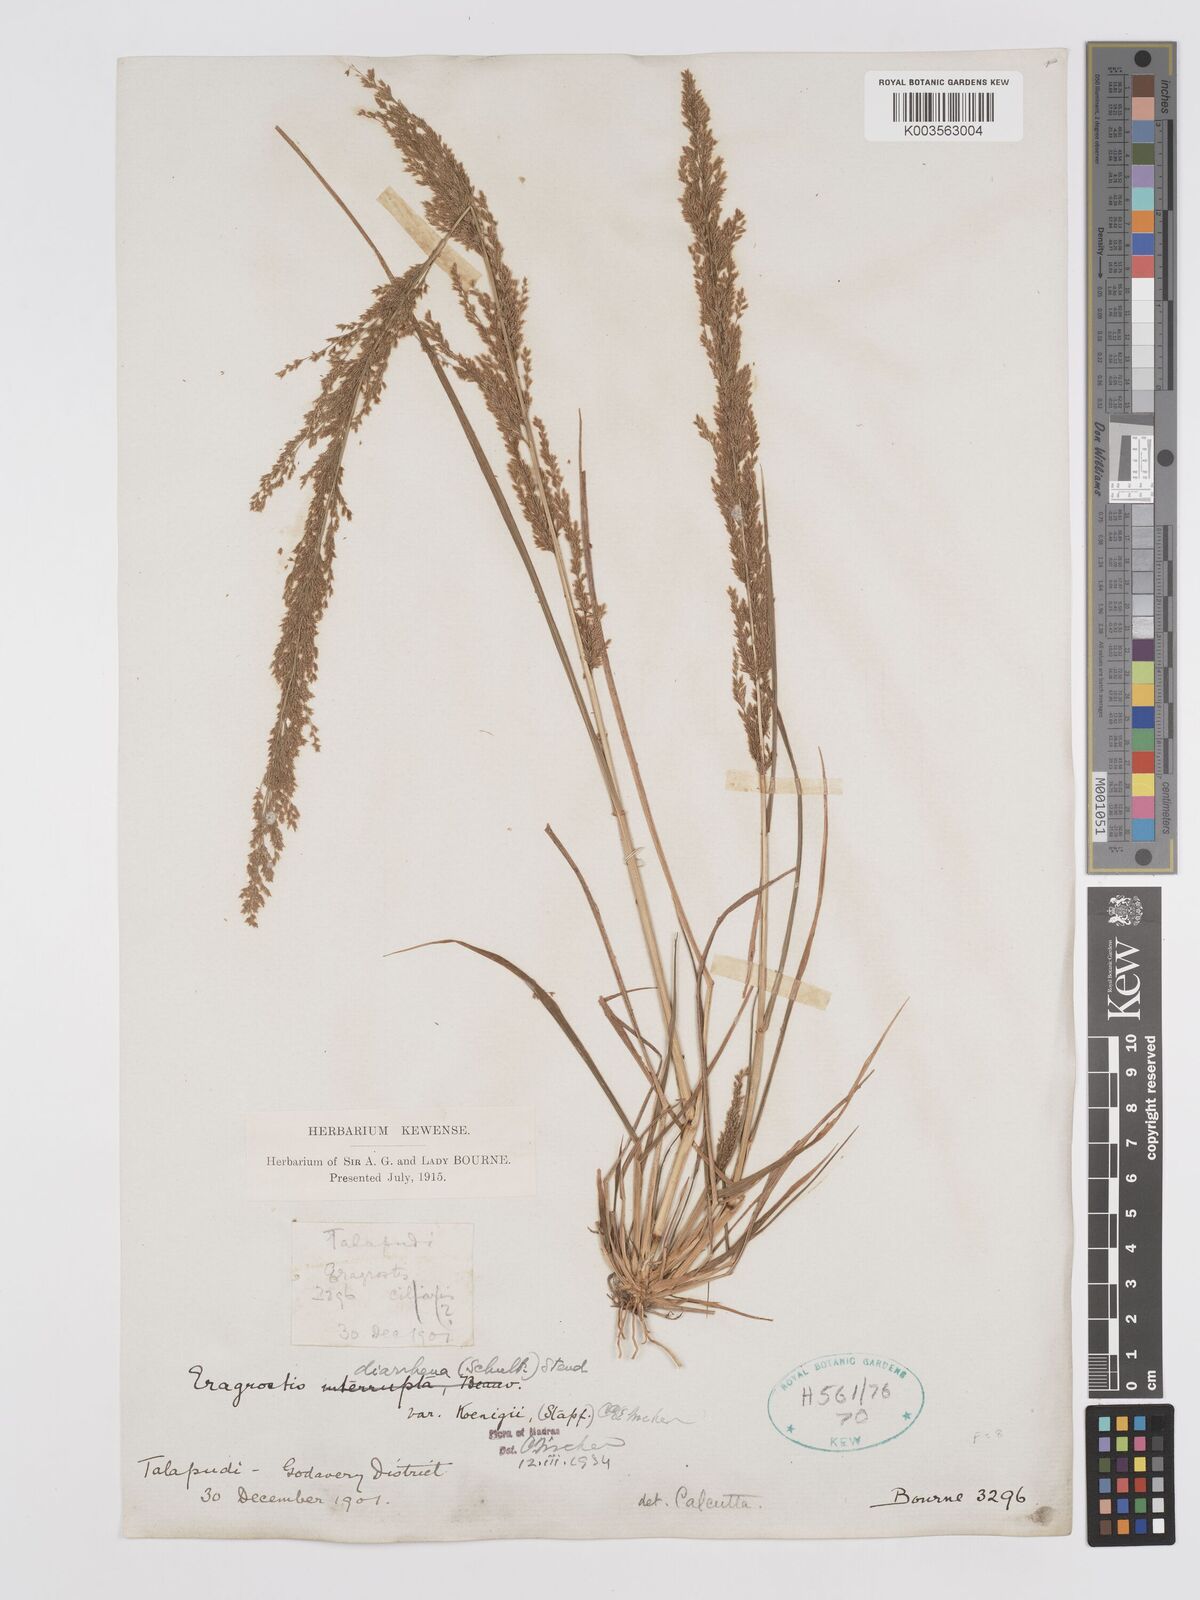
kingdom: Plantae
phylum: Tracheophyta
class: Liliopsida
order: Poales
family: Poaceae
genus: Eragrostis
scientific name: Eragrostis japonica
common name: Pond lovegrass
